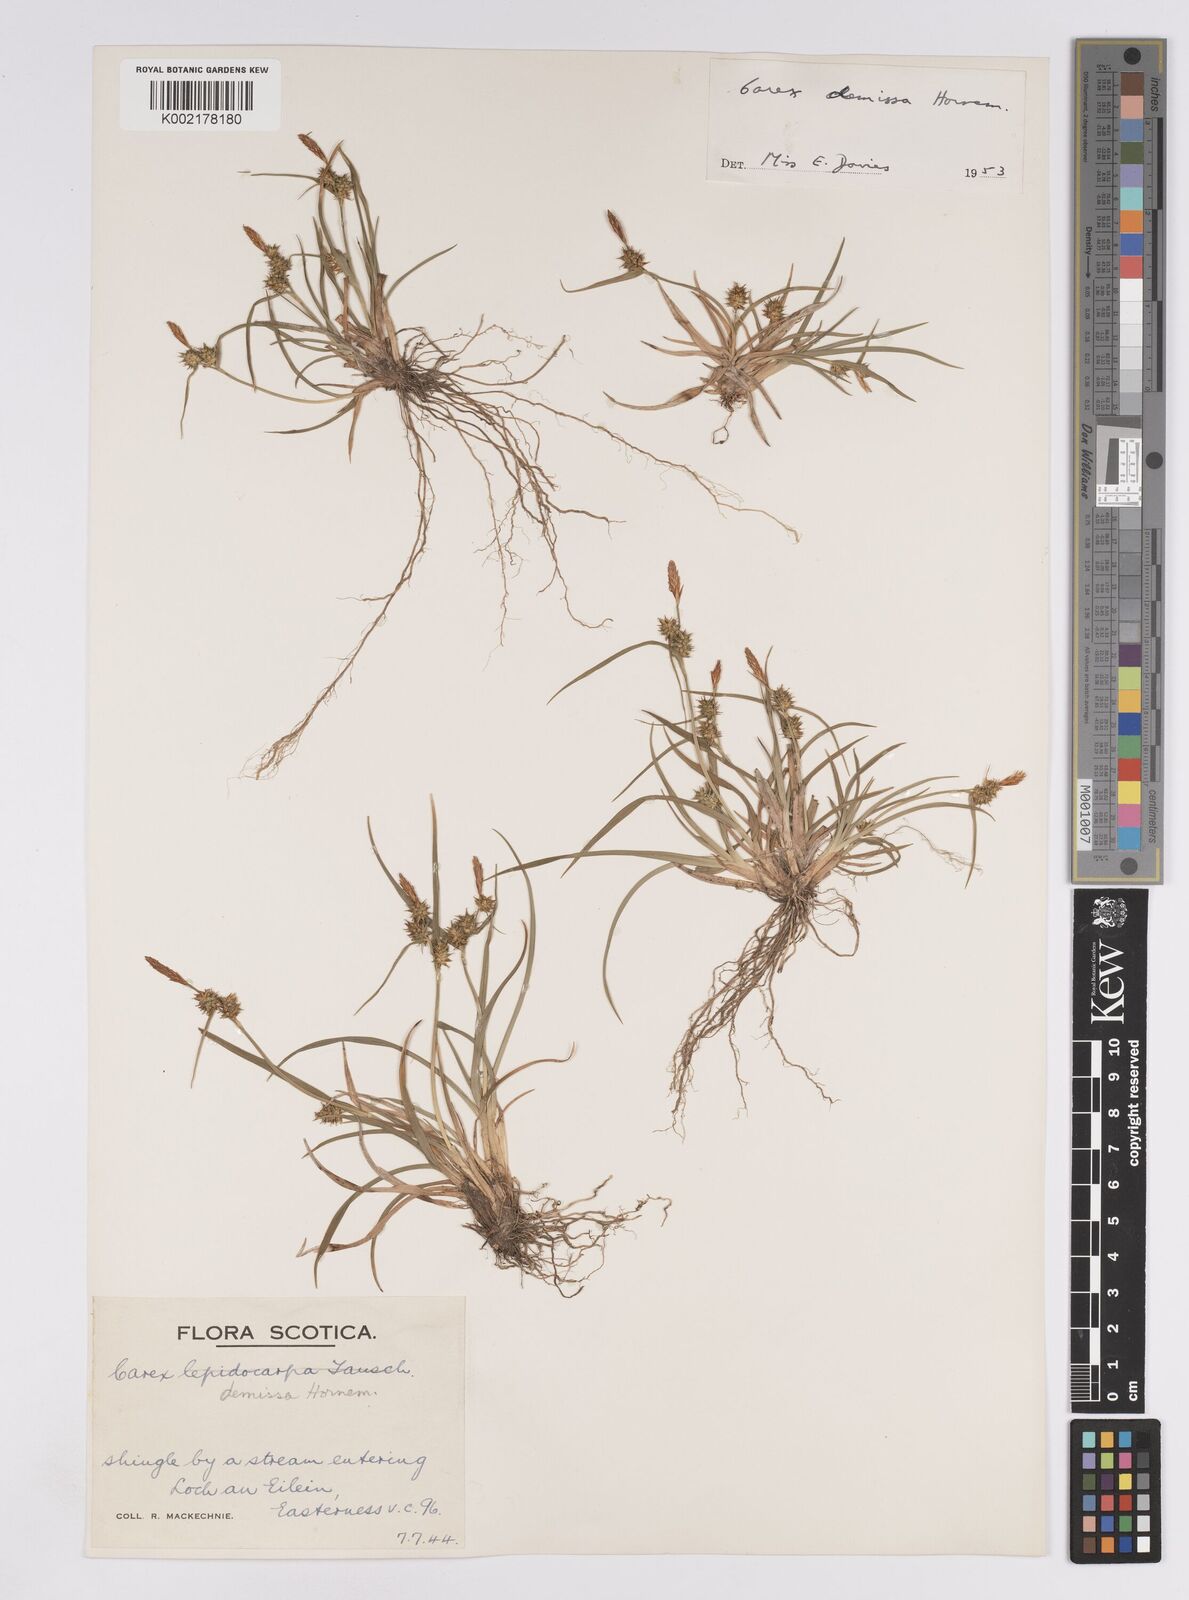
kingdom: Plantae
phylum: Tracheophyta
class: Liliopsida
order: Poales
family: Cyperaceae
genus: Carex
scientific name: Carex demissa
